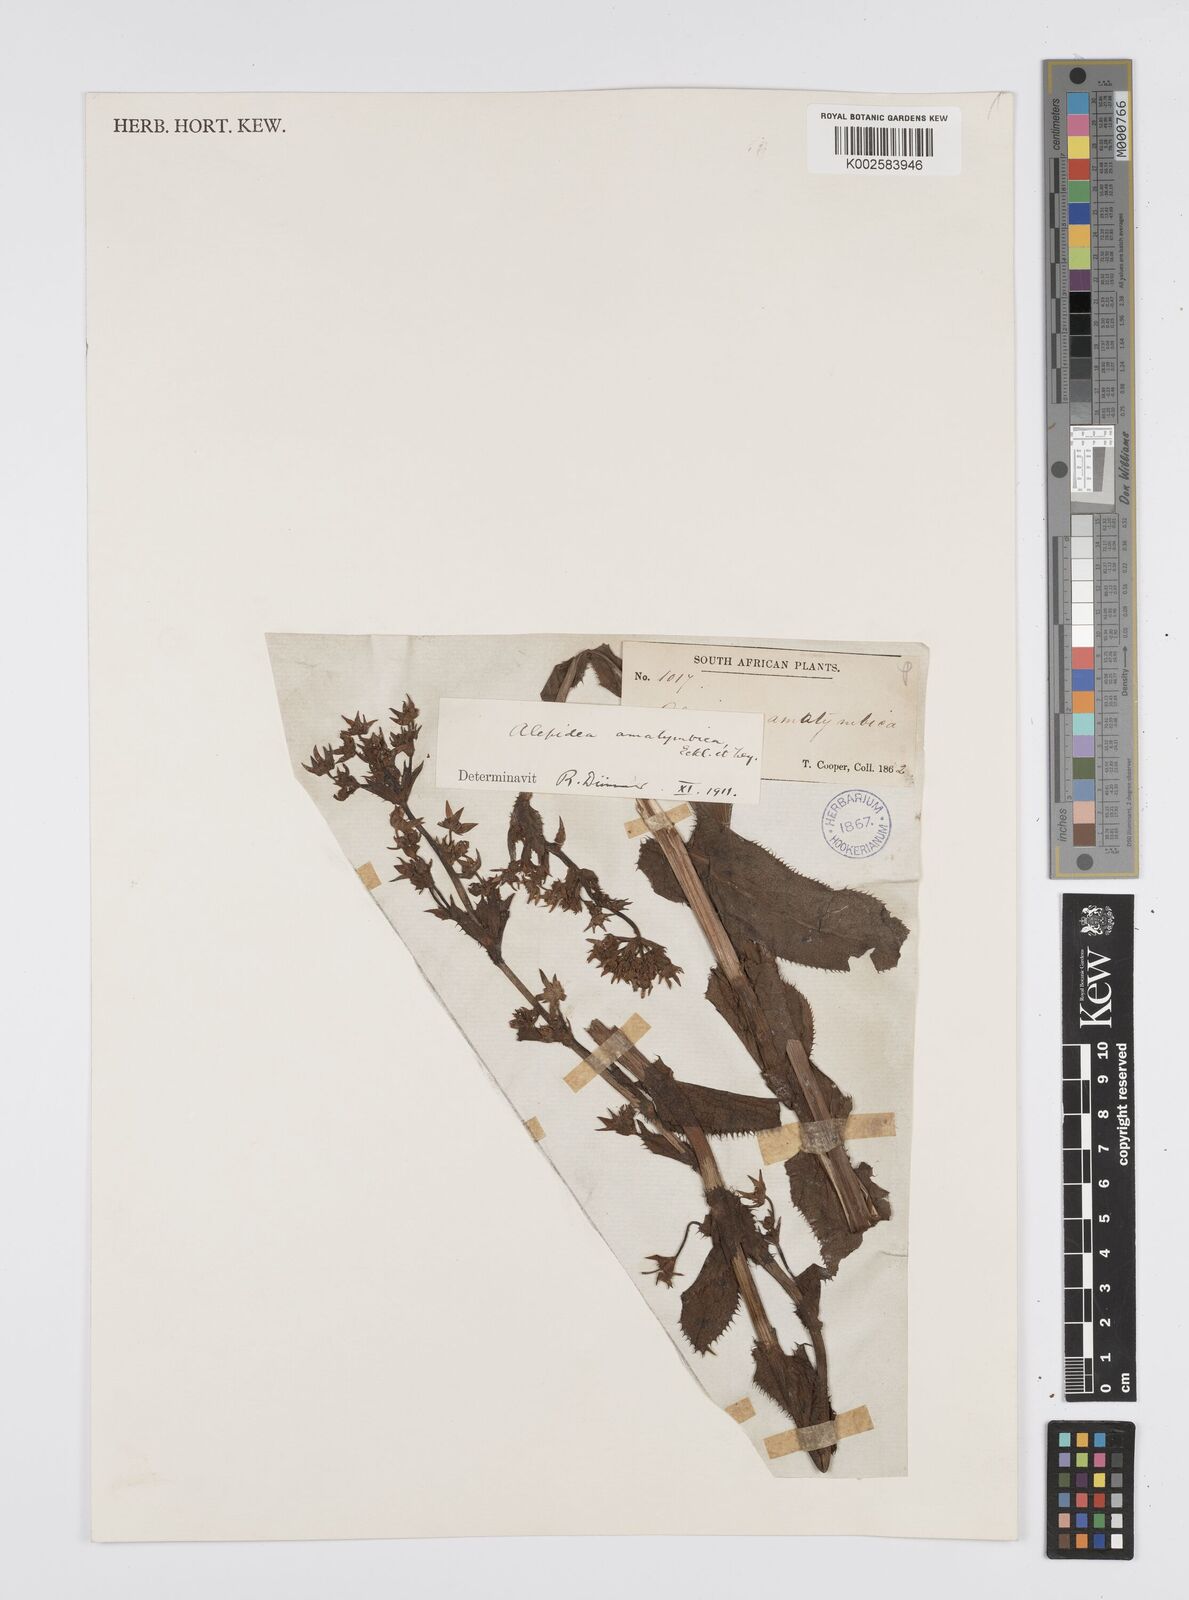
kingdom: Plantae
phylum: Tracheophyta
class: Magnoliopsida
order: Apiales
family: Apiaceae
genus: Alepidea
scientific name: Alepidea amatymbica
